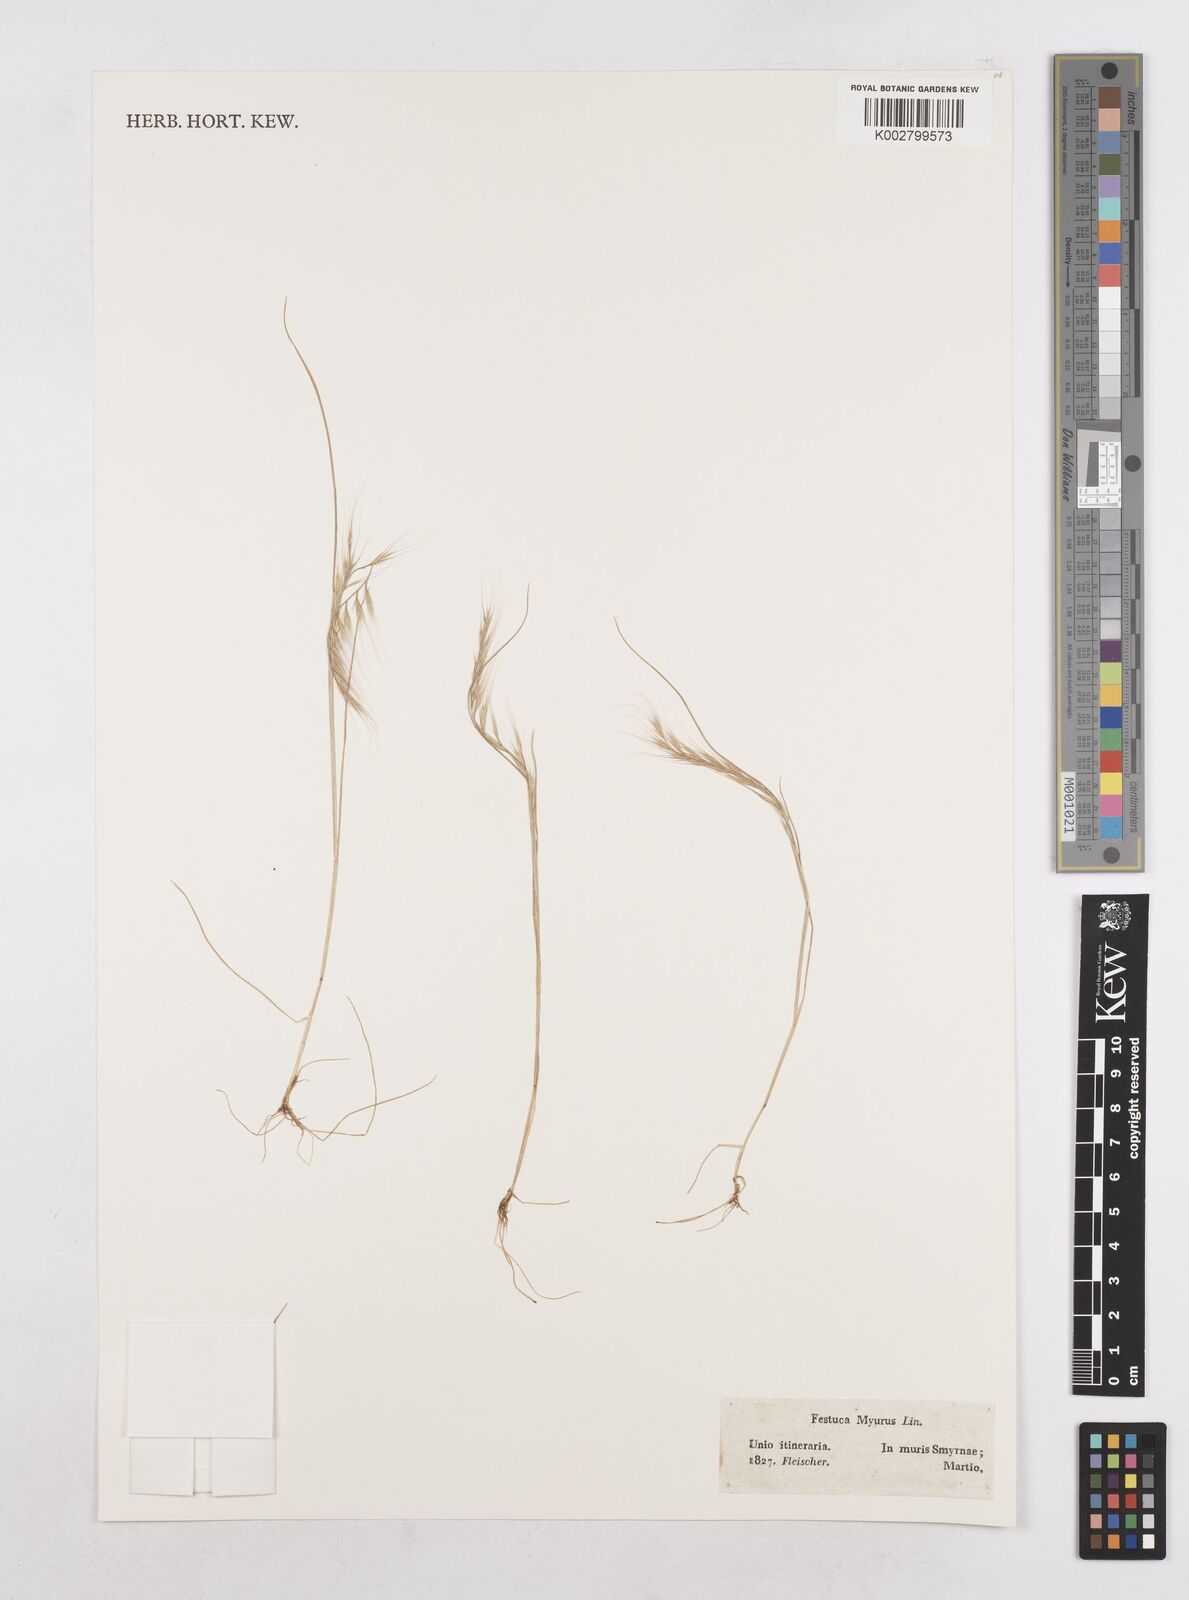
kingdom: Plantae
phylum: Tracheophyta
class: Liliopsida
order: Poales
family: Poaceae
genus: Festuca
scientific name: Festuca myuros
